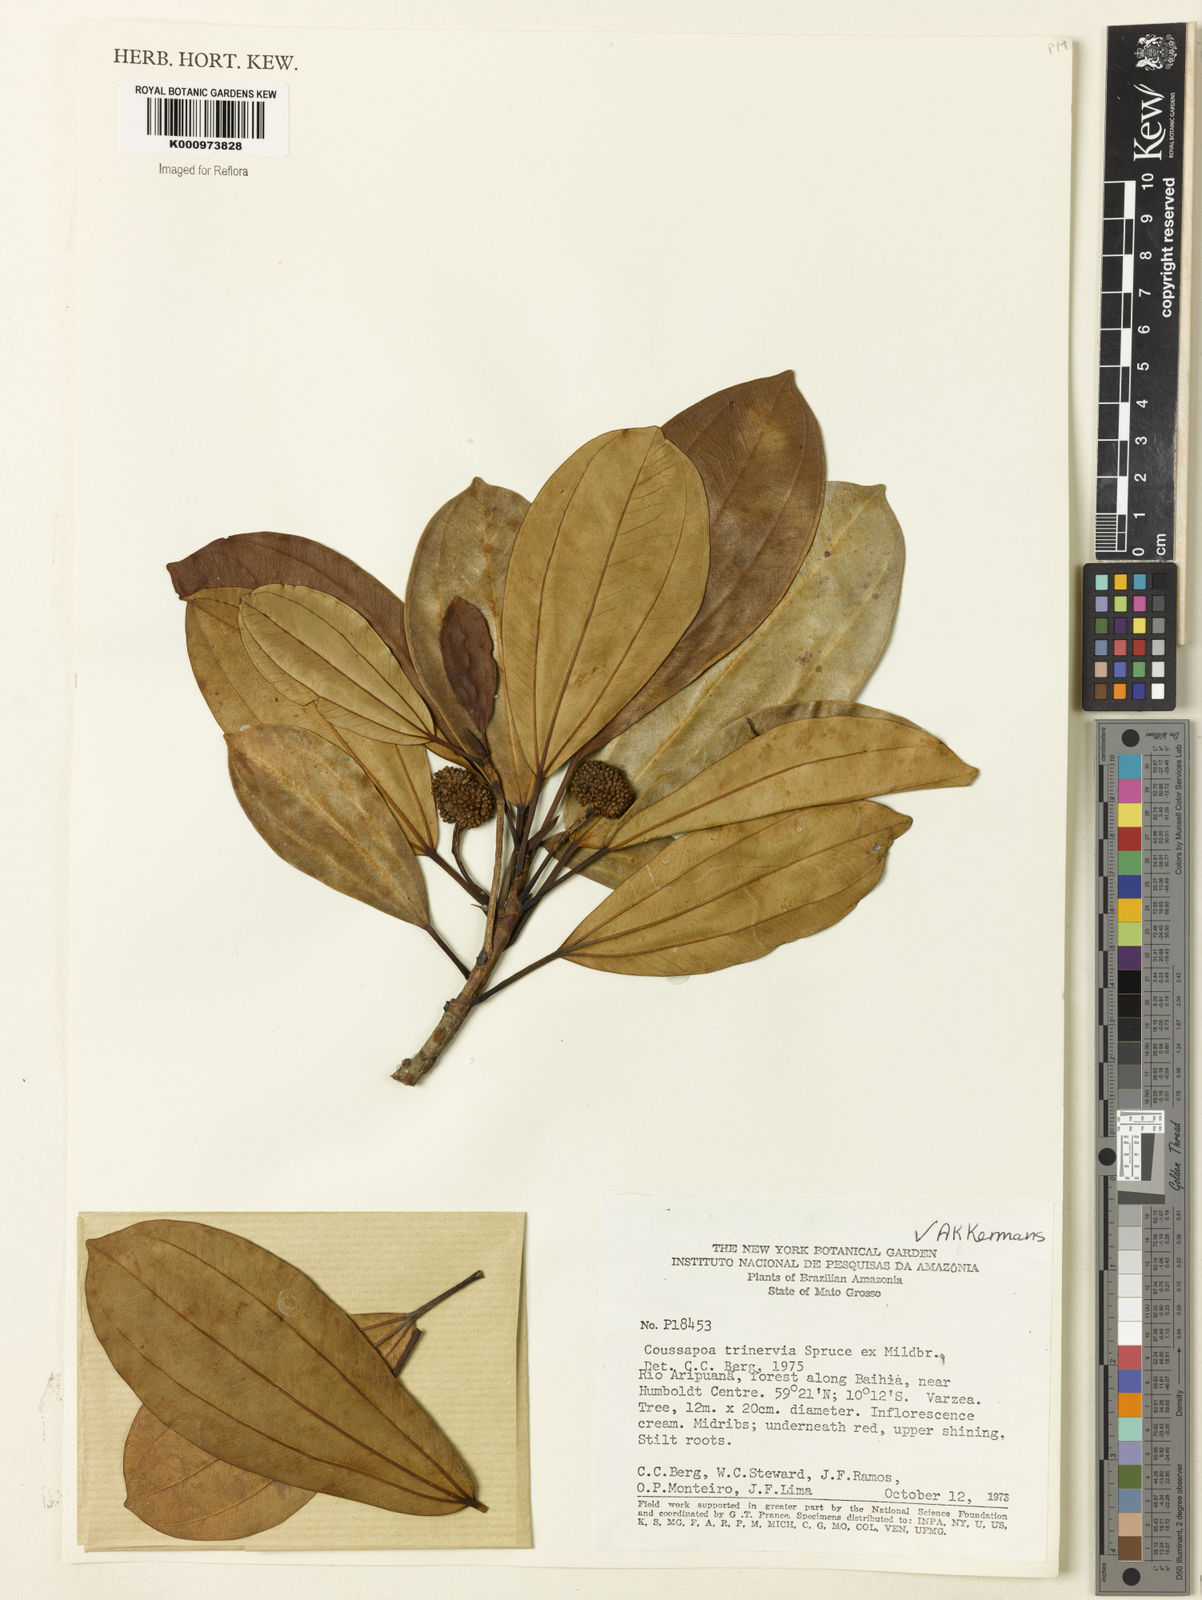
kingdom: Plantae
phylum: Tracheophyta
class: Magnoliopsida
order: Rosales
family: Urticaceae
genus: Coussapoa
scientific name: Coussapoa trinervia
